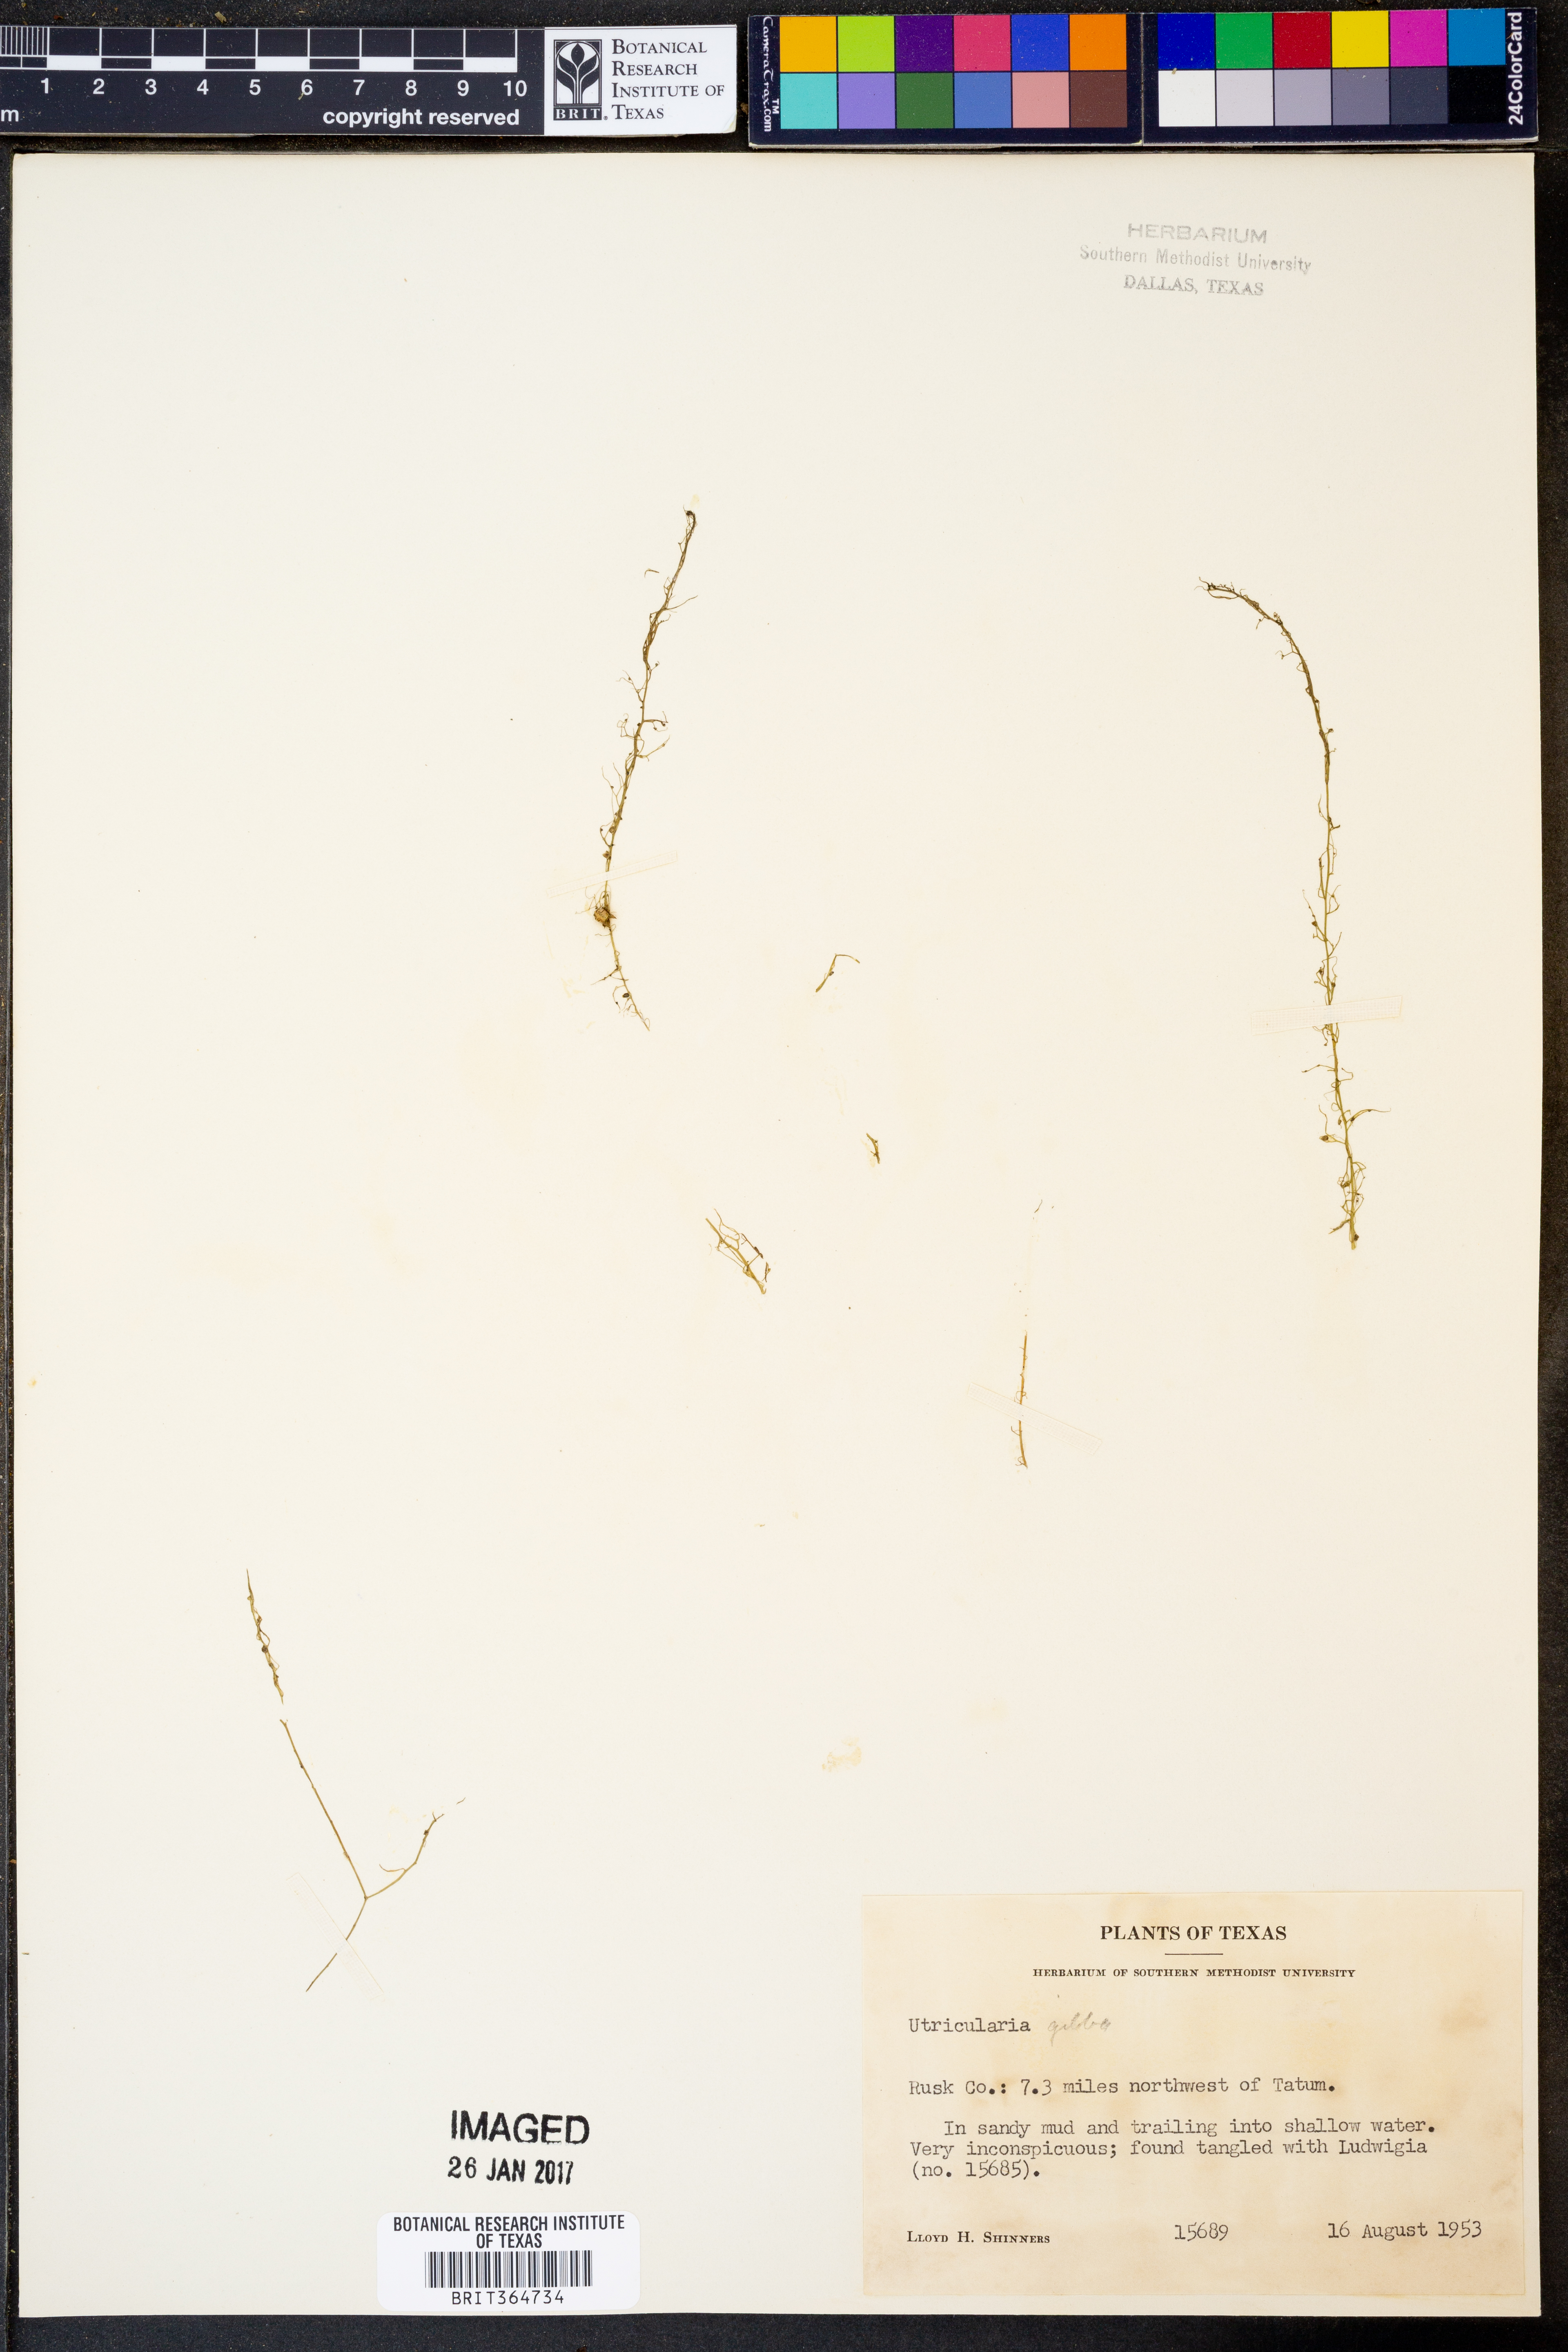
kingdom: Plantae
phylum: Tracheophyta
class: Magnoliopsida
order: Lamiales
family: Lentibulariaceae
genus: Utricularia
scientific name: Utricularia gibba
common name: Humped bladderwort
